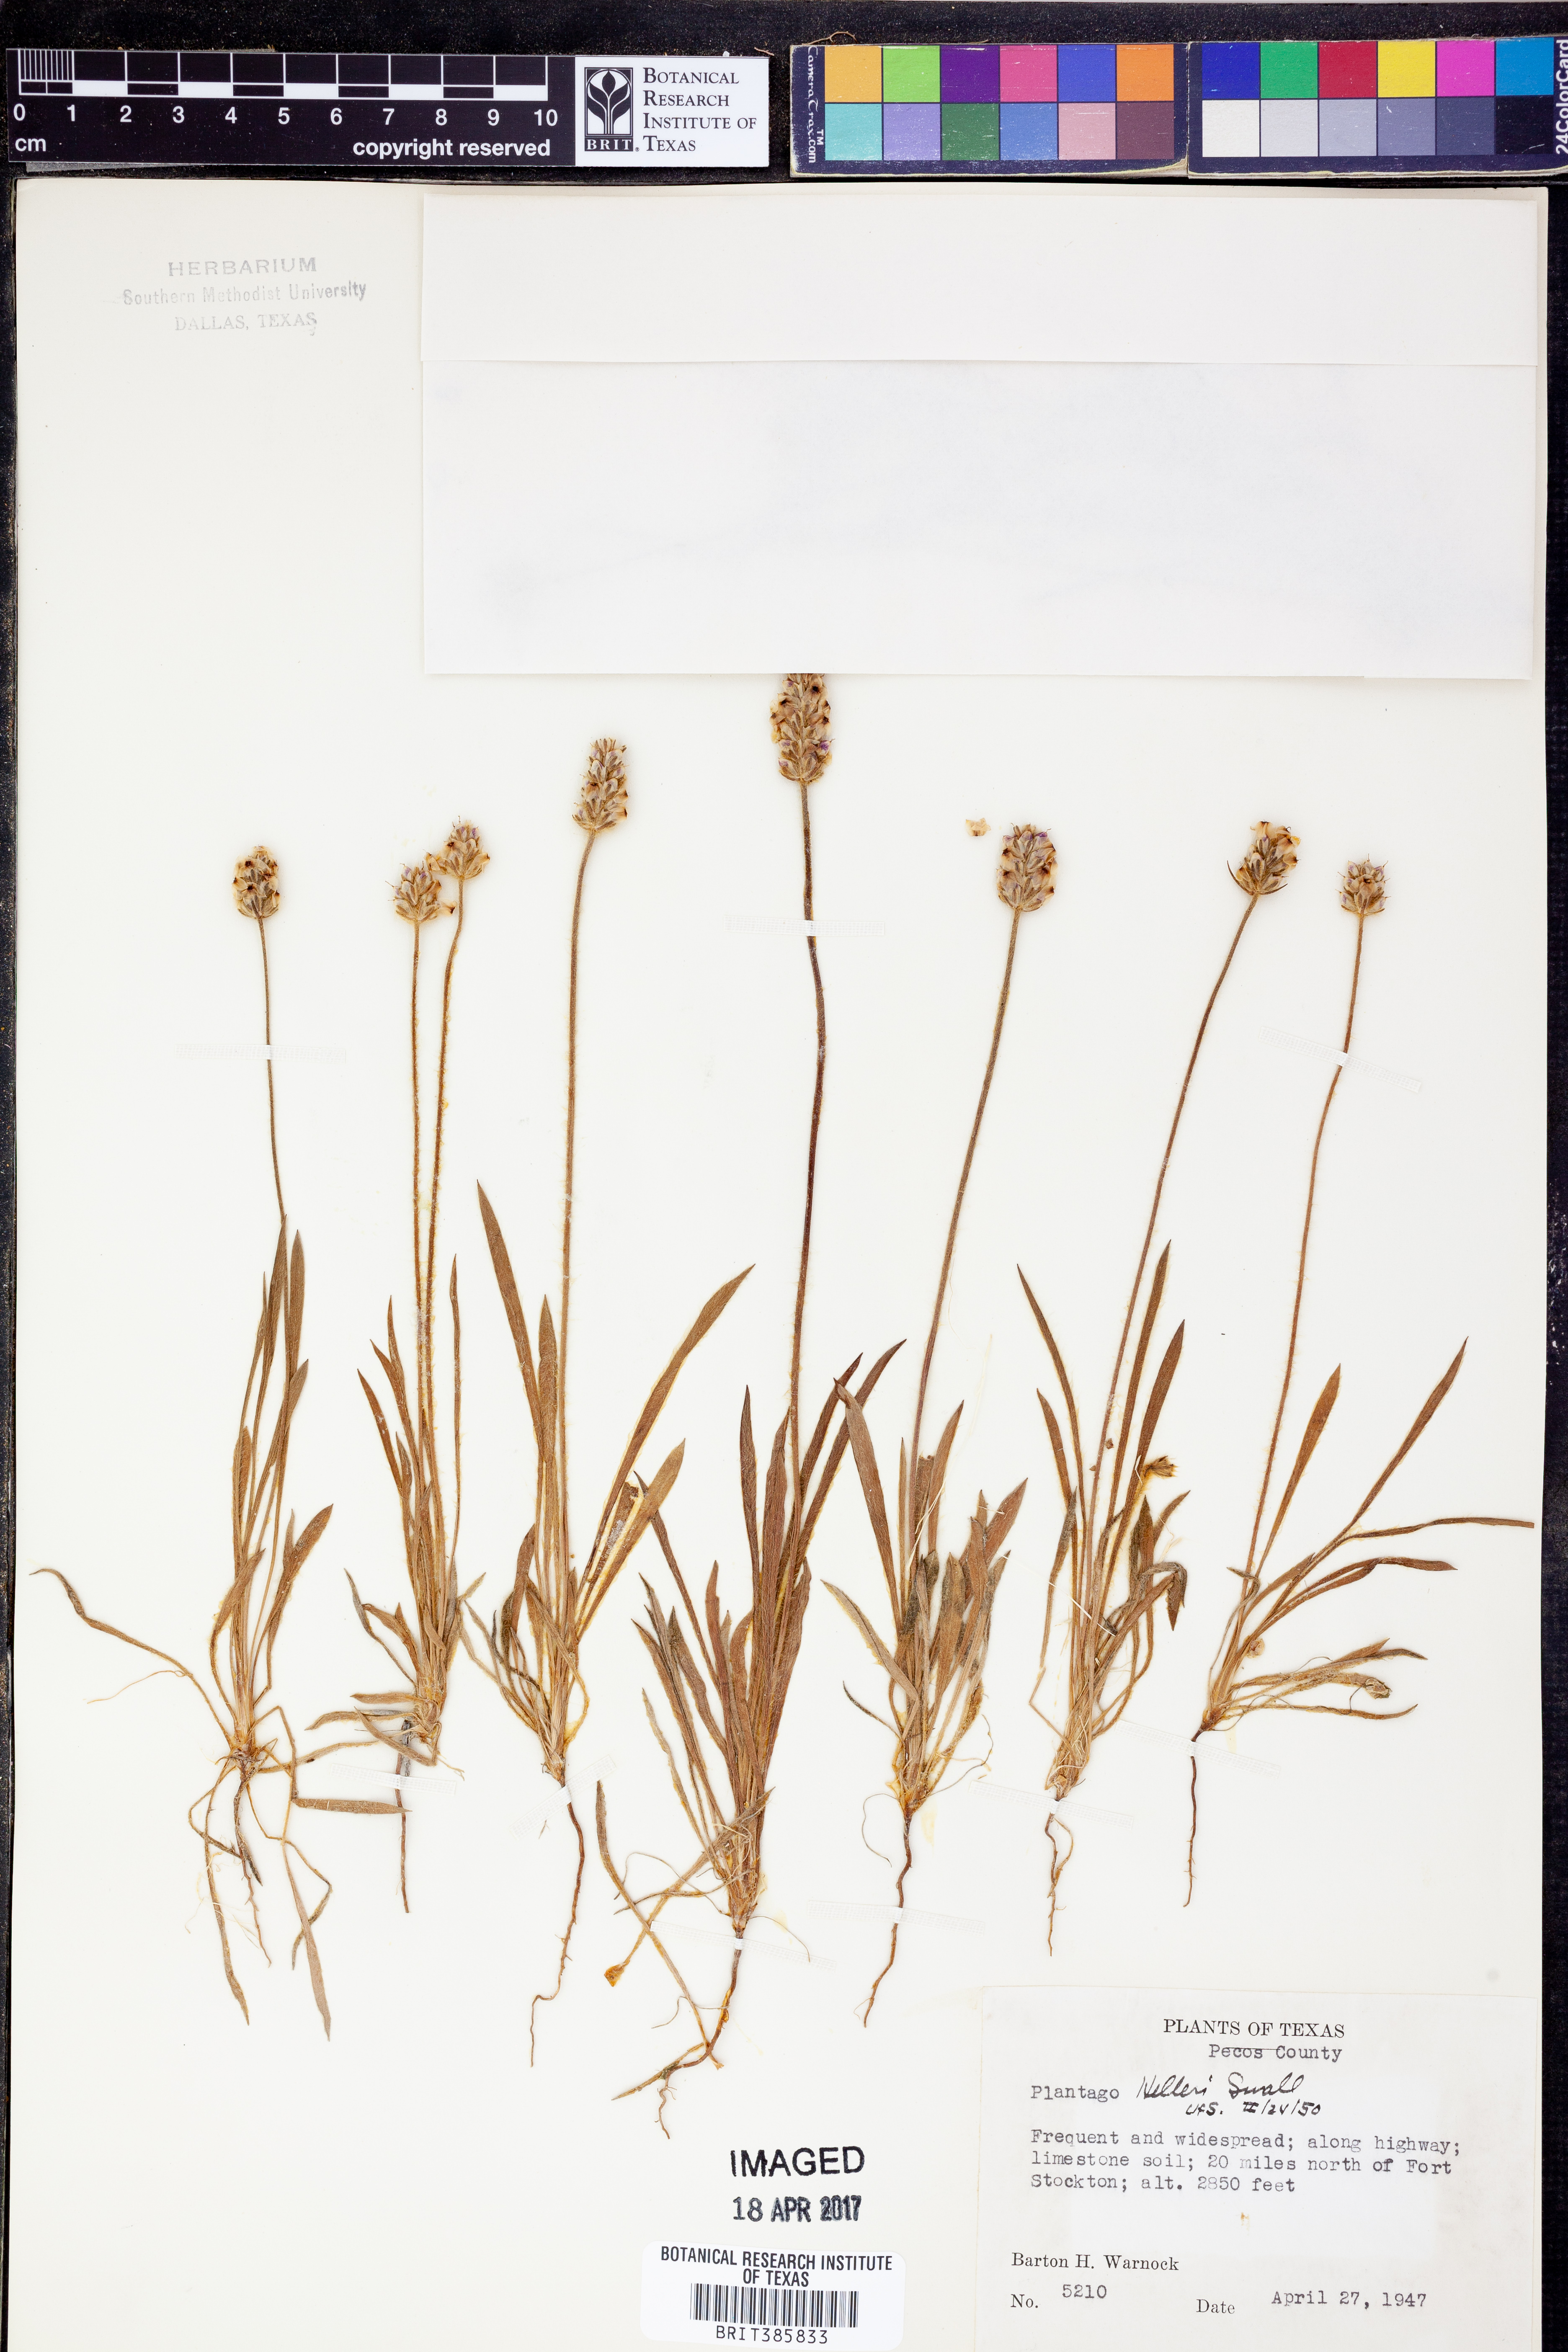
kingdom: Plantae
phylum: Tracheophyta
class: Magnoliopsida
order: Lamiales
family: Plantaginaceae
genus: Plantago
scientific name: Plantago helleri
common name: Heller's plantain
